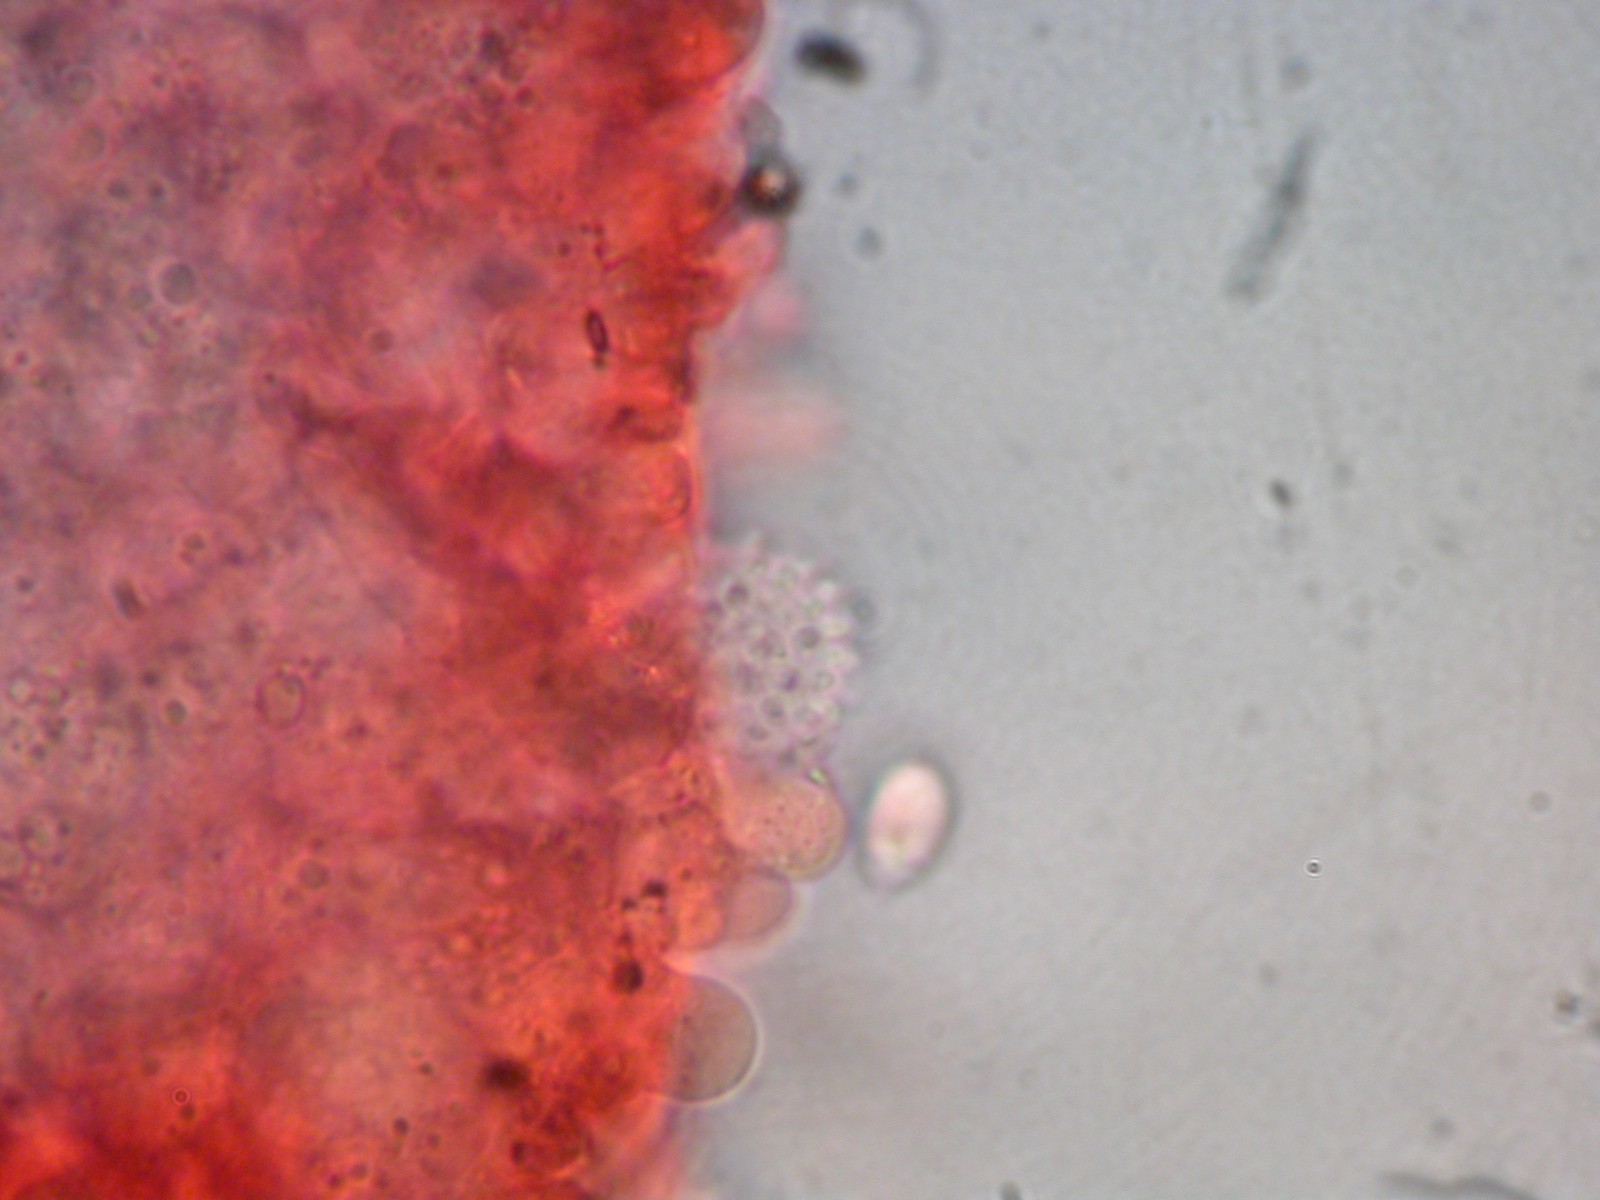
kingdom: Fungi
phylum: Basidiomycota
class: Agaricomycetes
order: Agaricales
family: Mycenaceae
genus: Mycena
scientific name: Mycena flavescens
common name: grågul huesvamp
